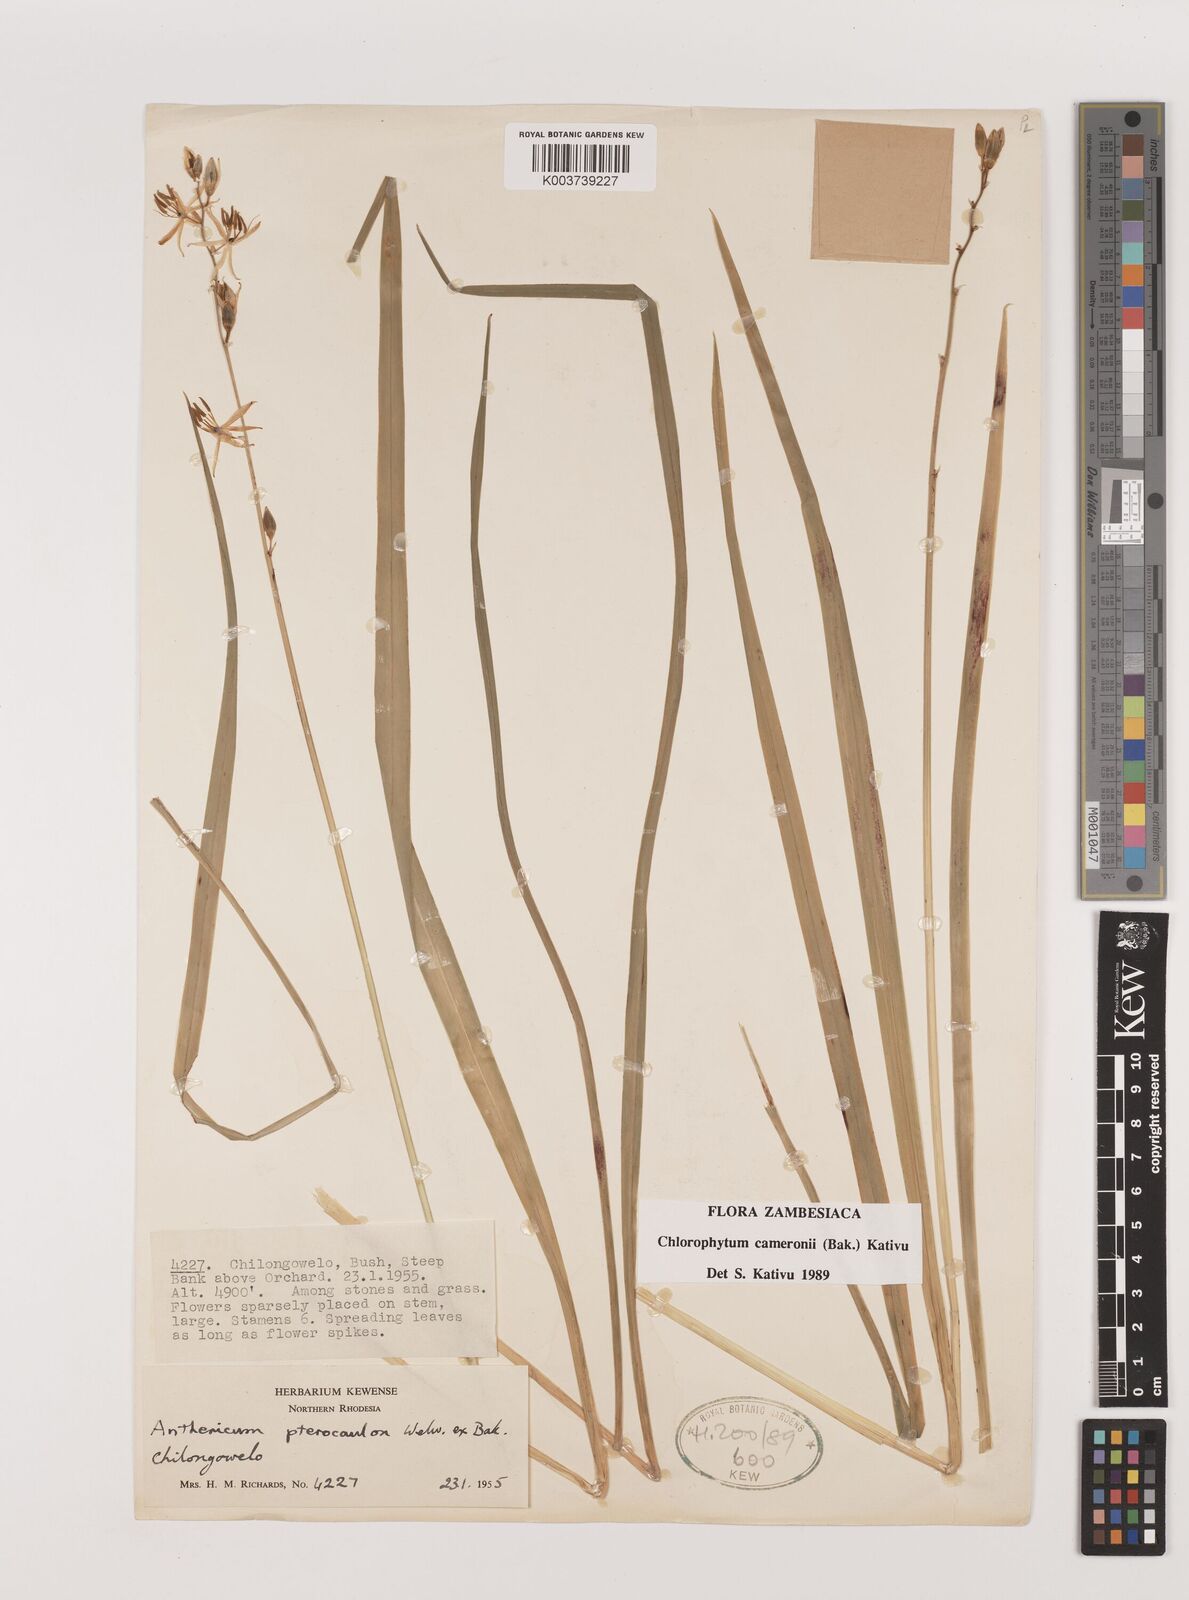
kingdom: Plantae
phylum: Tracheophyta
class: Liliopsida
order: Asparagales
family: Asparagaceae
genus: Chlorophytum
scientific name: Chlorophytum cameronii
